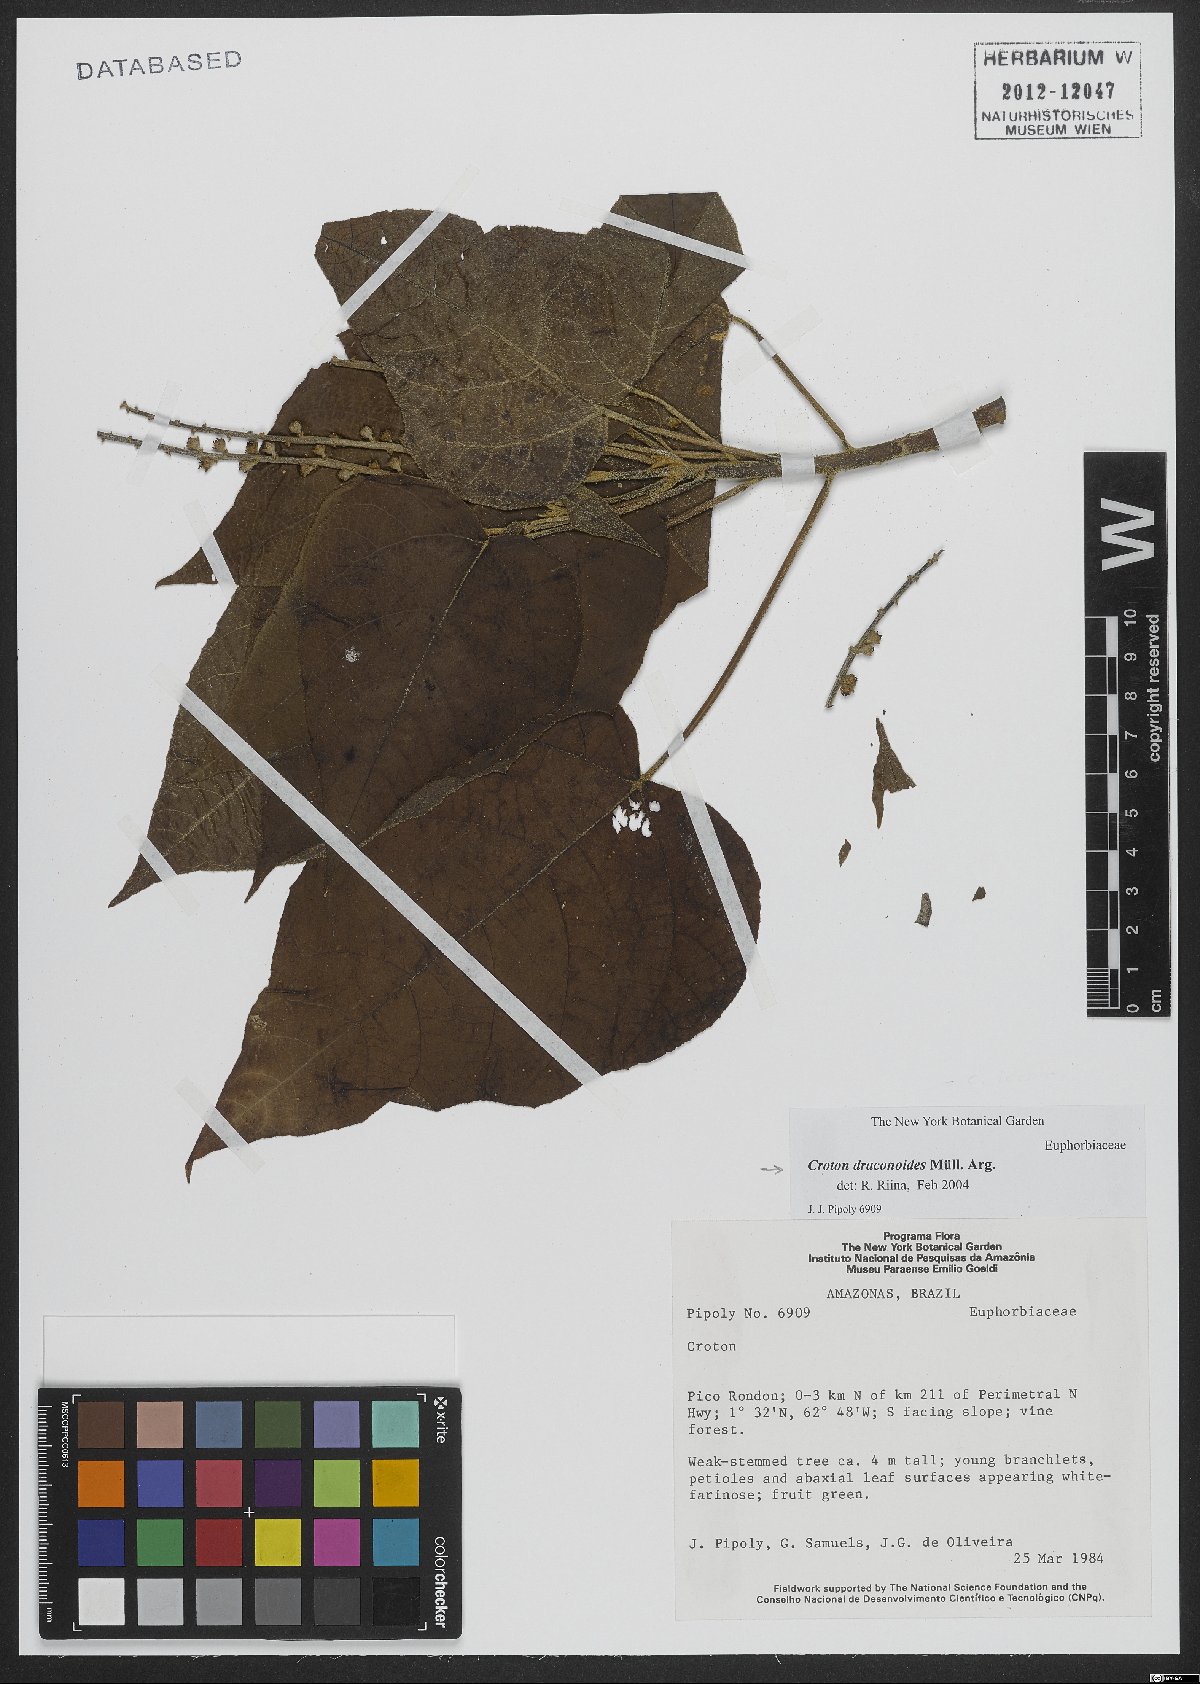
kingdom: Plantae
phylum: Tracheophyta
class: Magnoliopsida
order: Malpighiales
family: Euphorbiaceae
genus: Croton
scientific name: Croton draconoides
